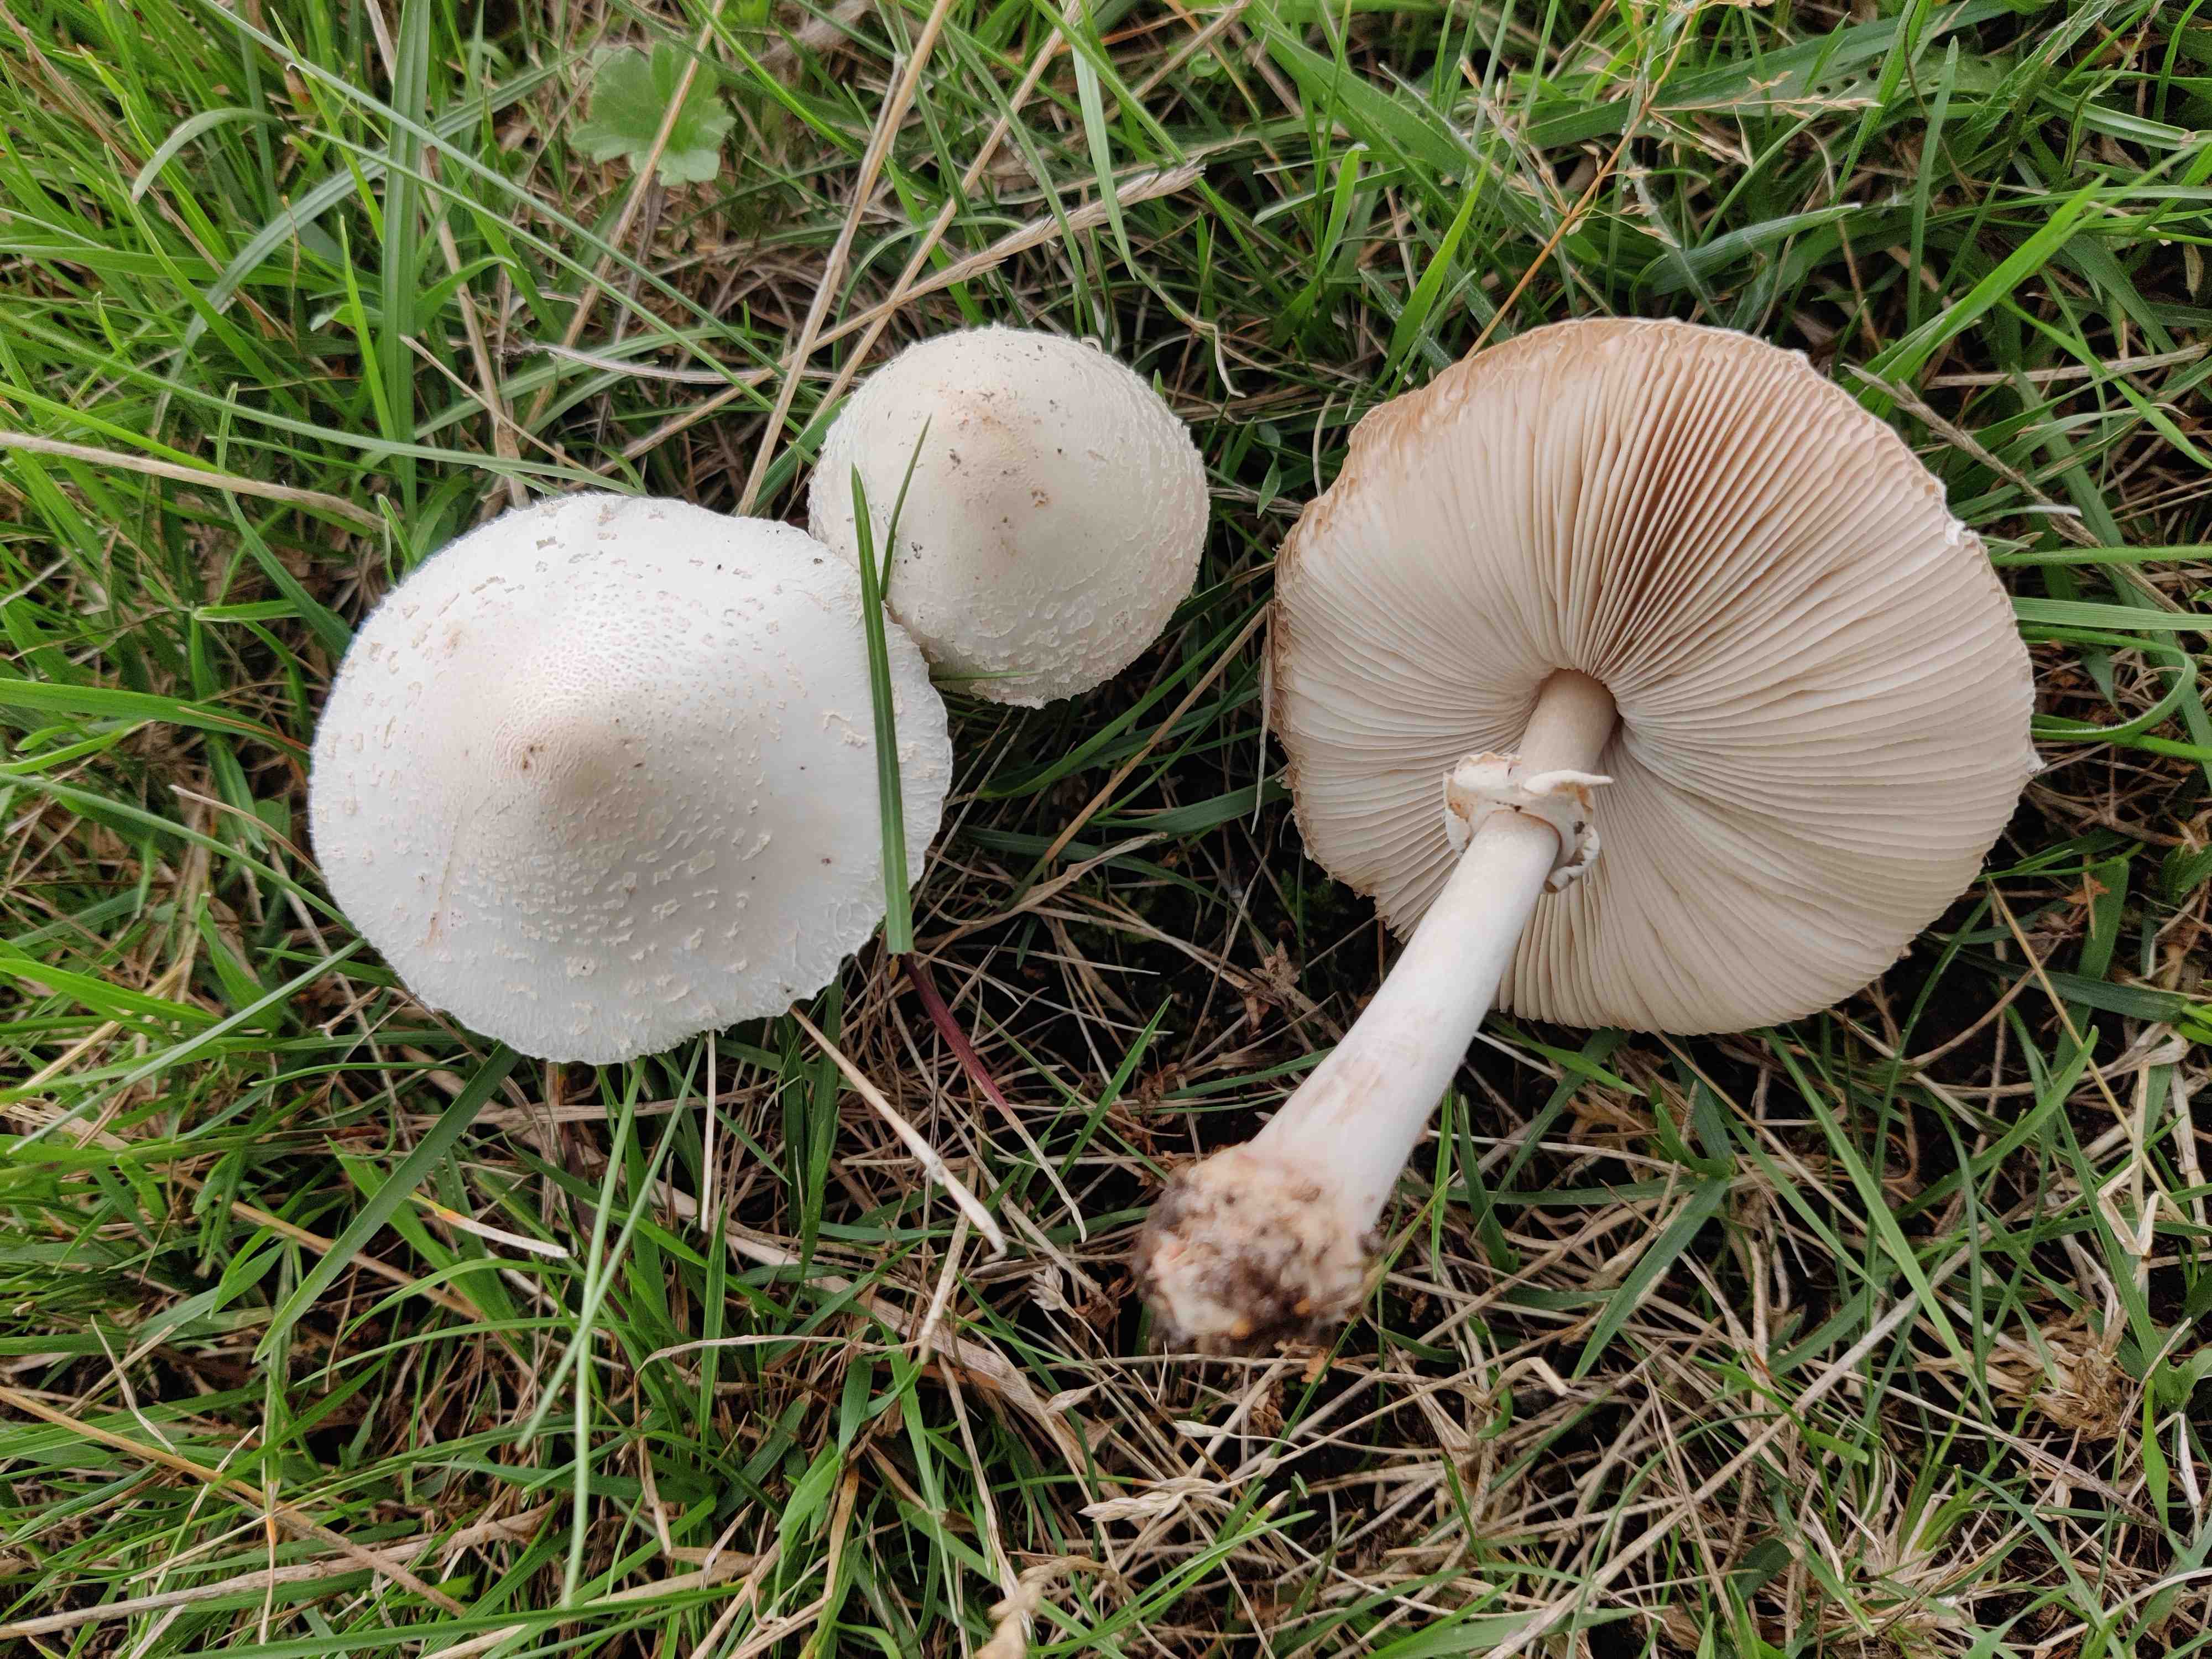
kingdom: Fungi
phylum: Basidiomycota
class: Agaricomycetes
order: Agaricales
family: Agaricaceae
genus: Leucoagaricus
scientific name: Leucoagaricus leucothites
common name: rosabladet silkehat
